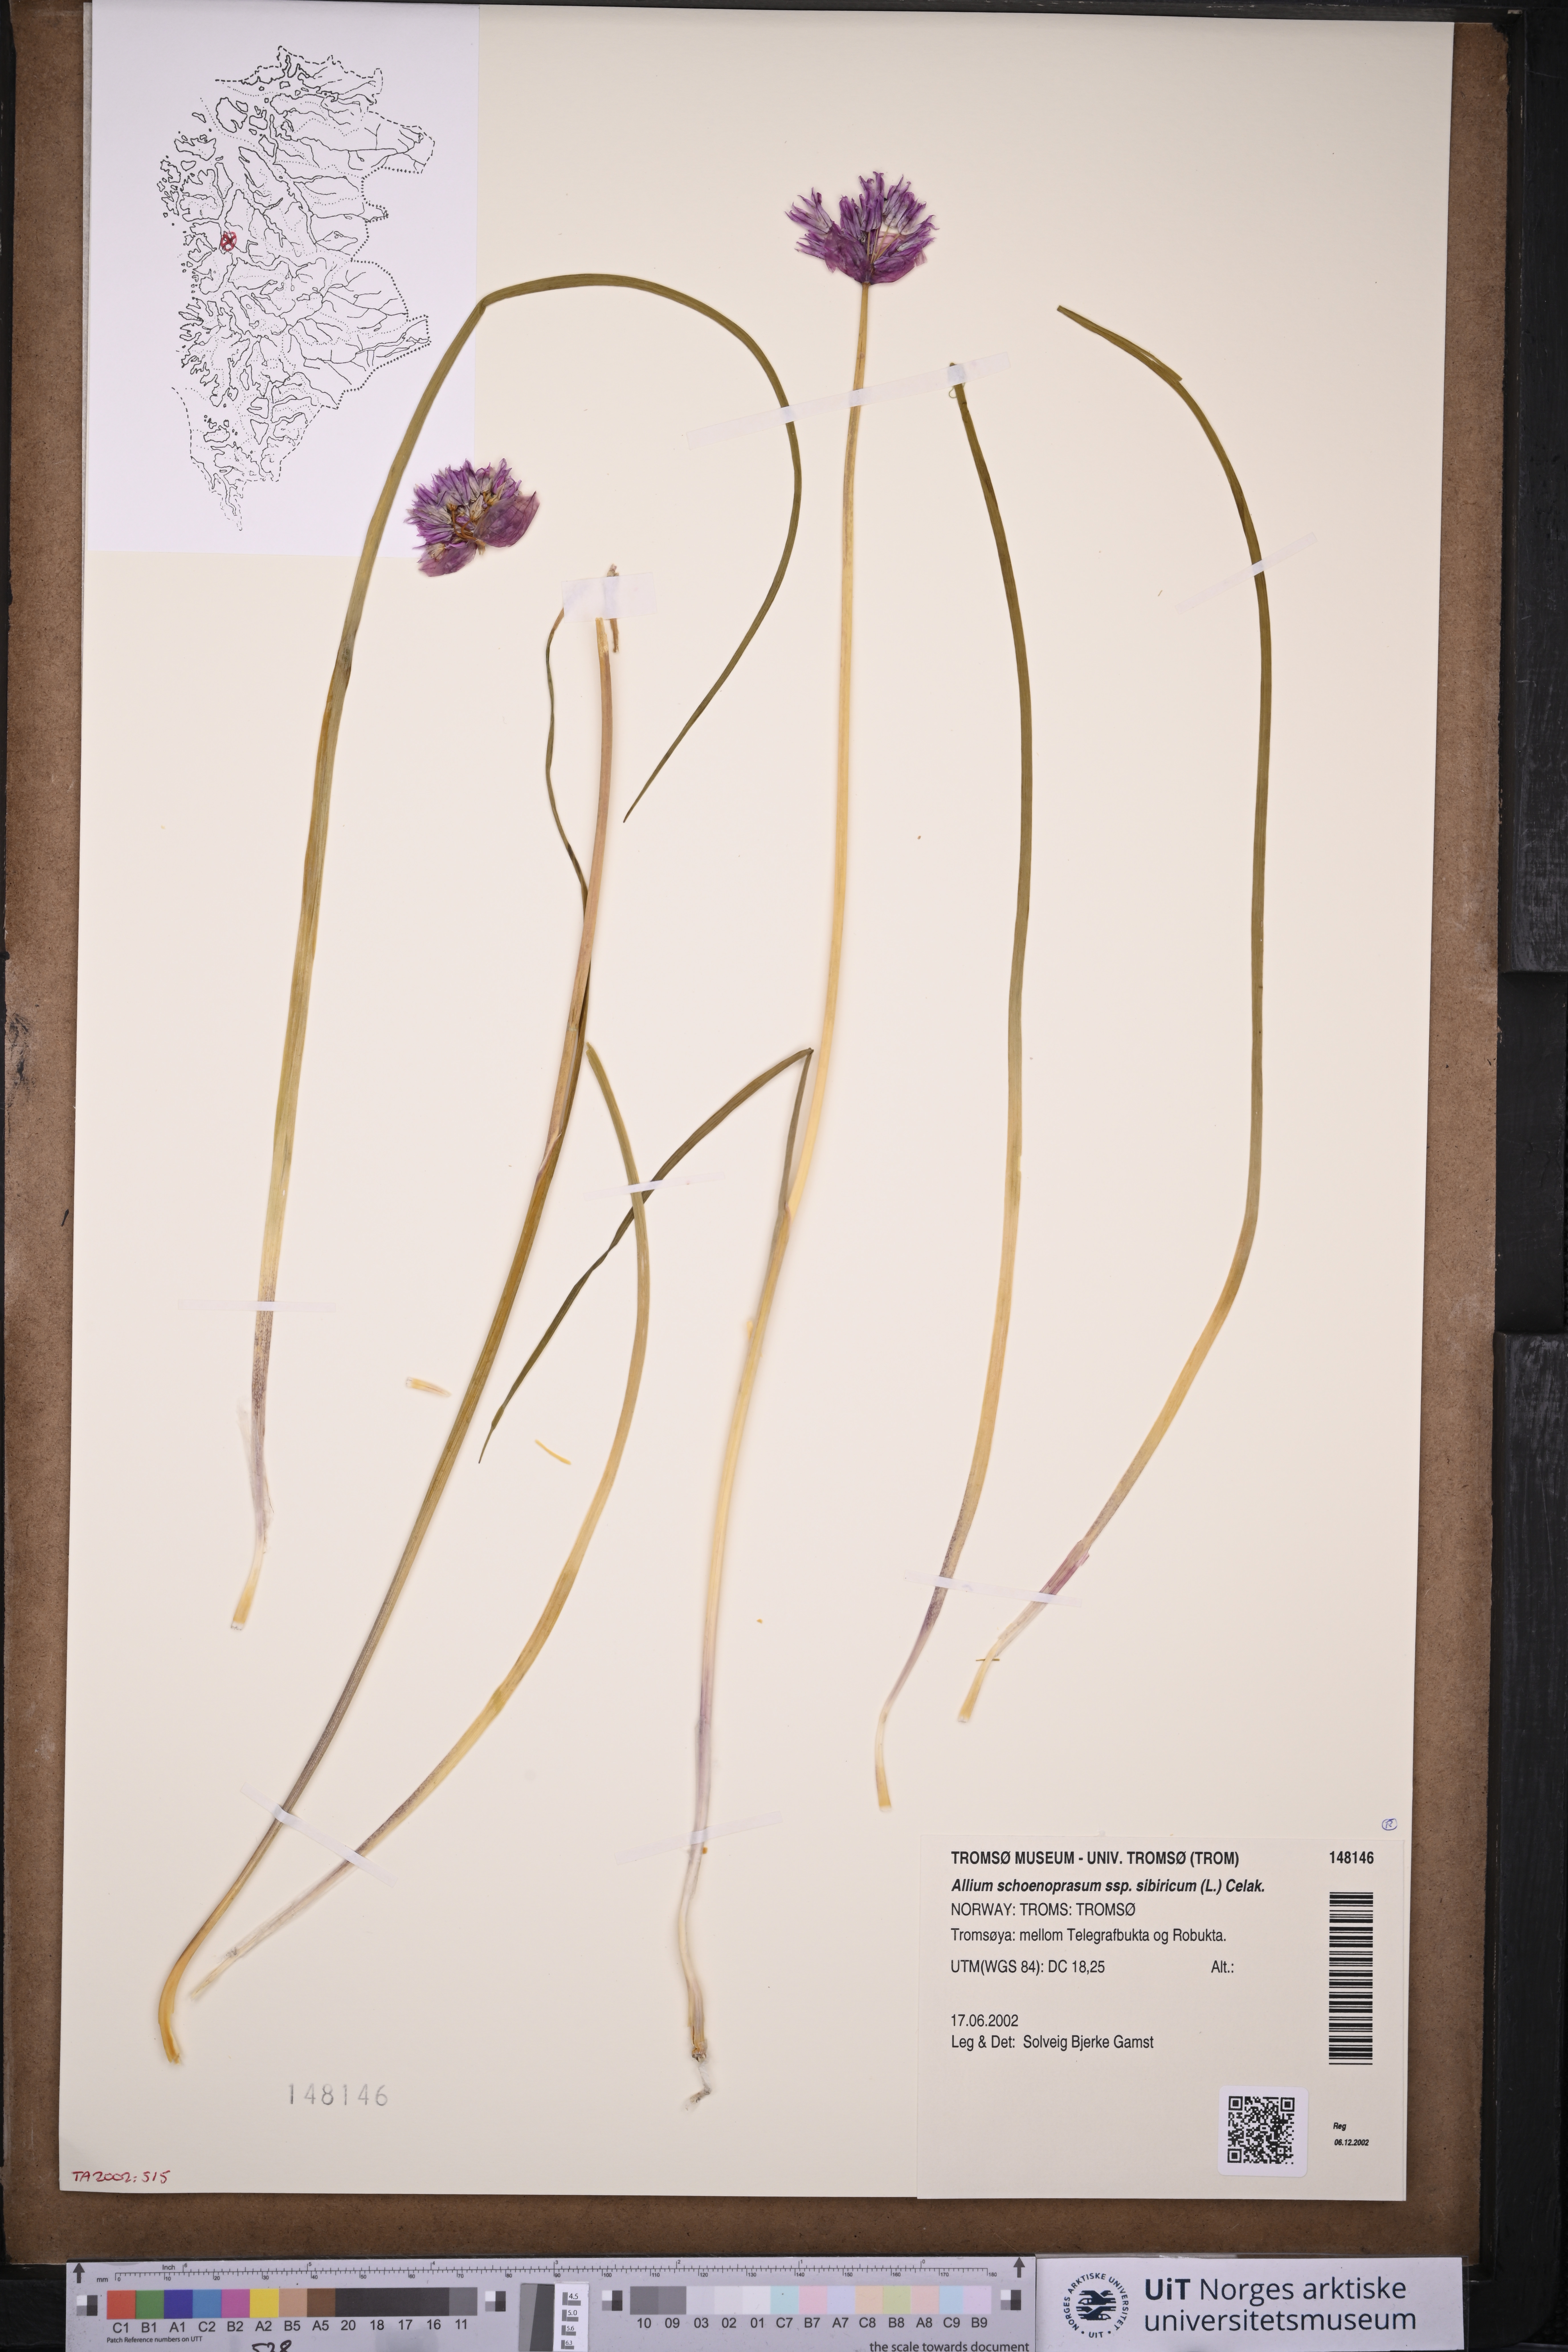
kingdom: Plantae
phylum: Tracheophyta
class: Liliopsida
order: Asparagales
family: Amaryllidaceae
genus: Allium
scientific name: Allium schoenoprasum
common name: Chives
